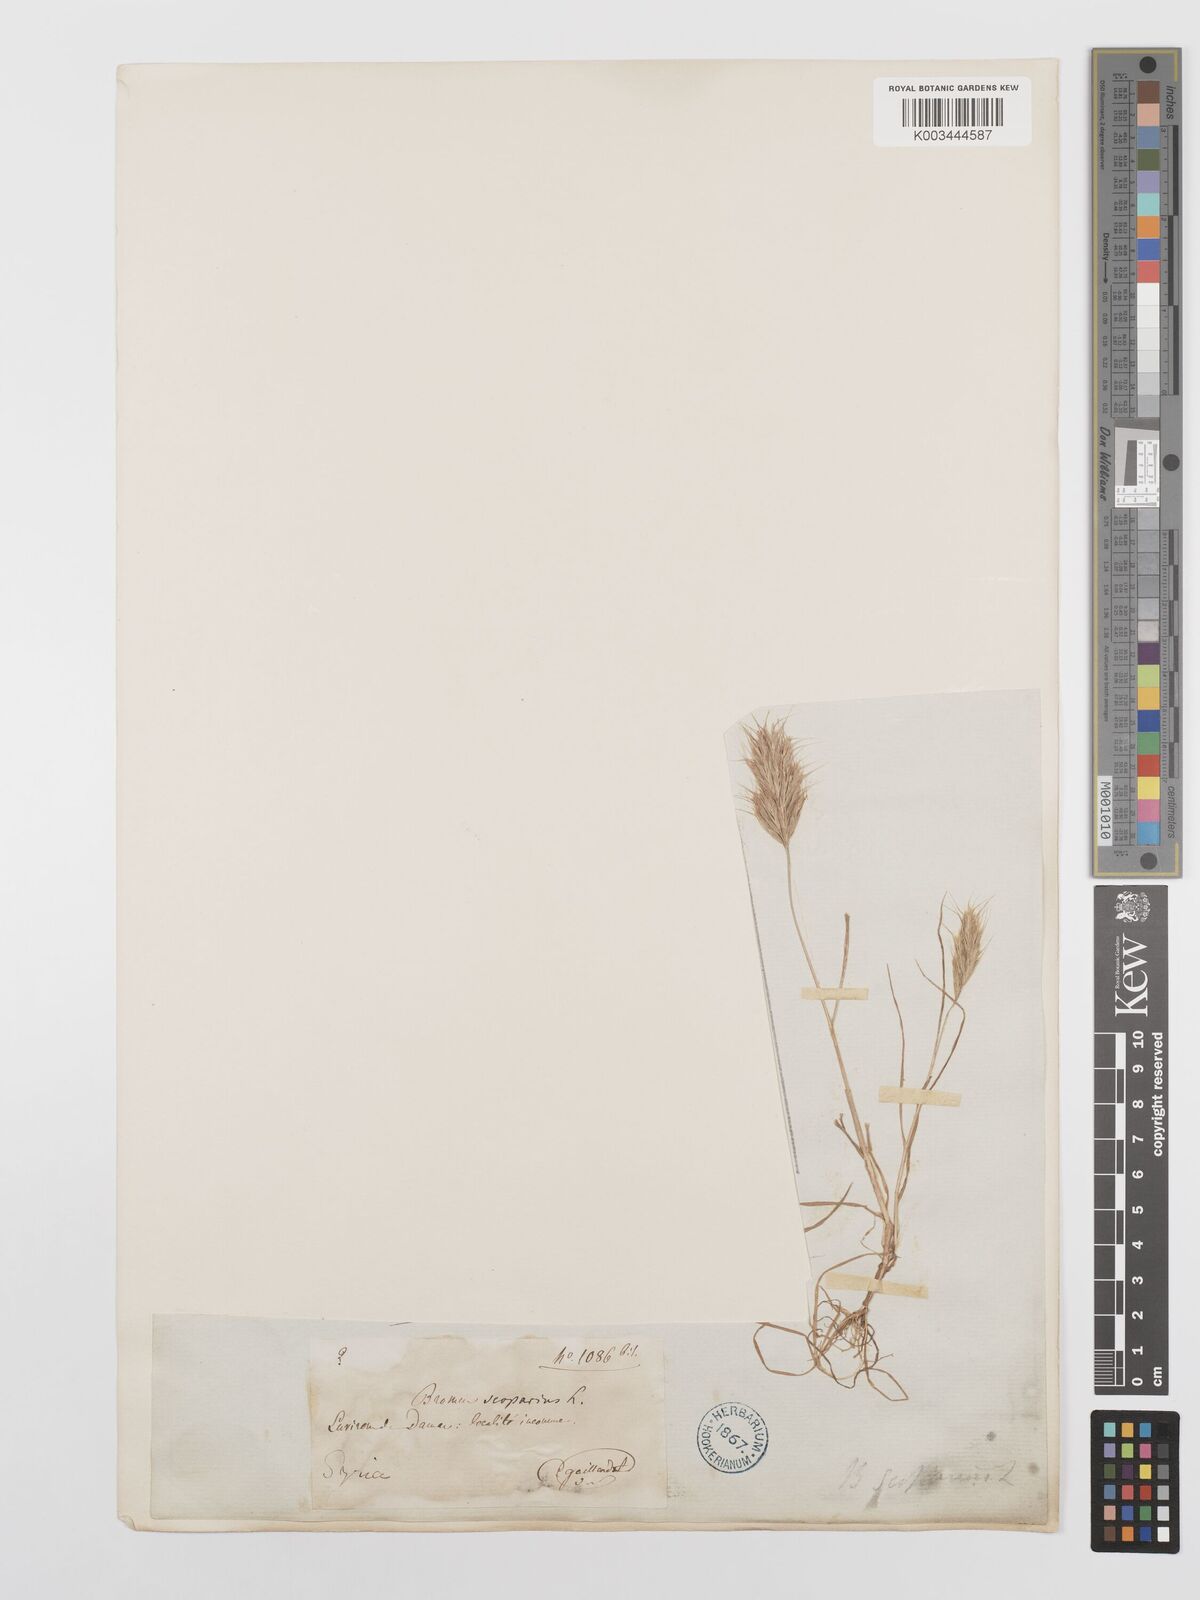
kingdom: Plantae
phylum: Tracheophyta
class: Liliopsida
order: Poales
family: Poaceae
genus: Bromus
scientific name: Bromus scoparius
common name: Broom brome
